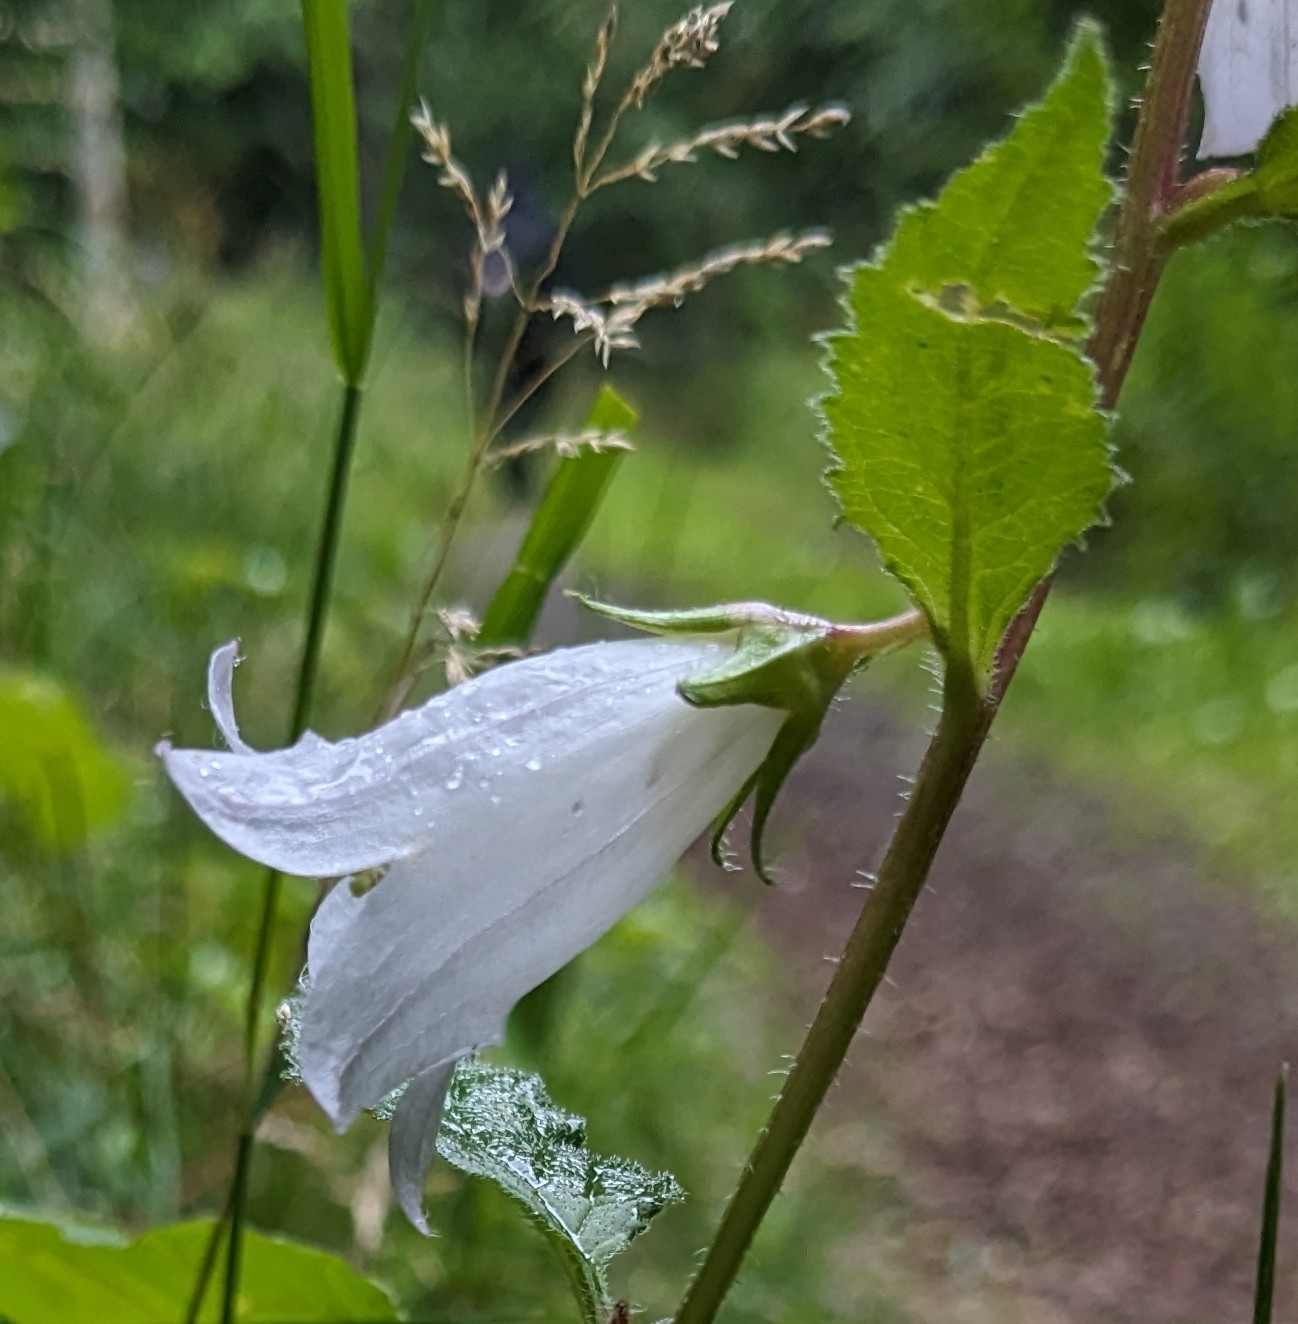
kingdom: Plantae
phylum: Tracheophyta
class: Magnoliopsida
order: Asterales
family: Campanulaceae
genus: Campanula
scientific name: Campanula trachelium
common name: Nælde-klokke
